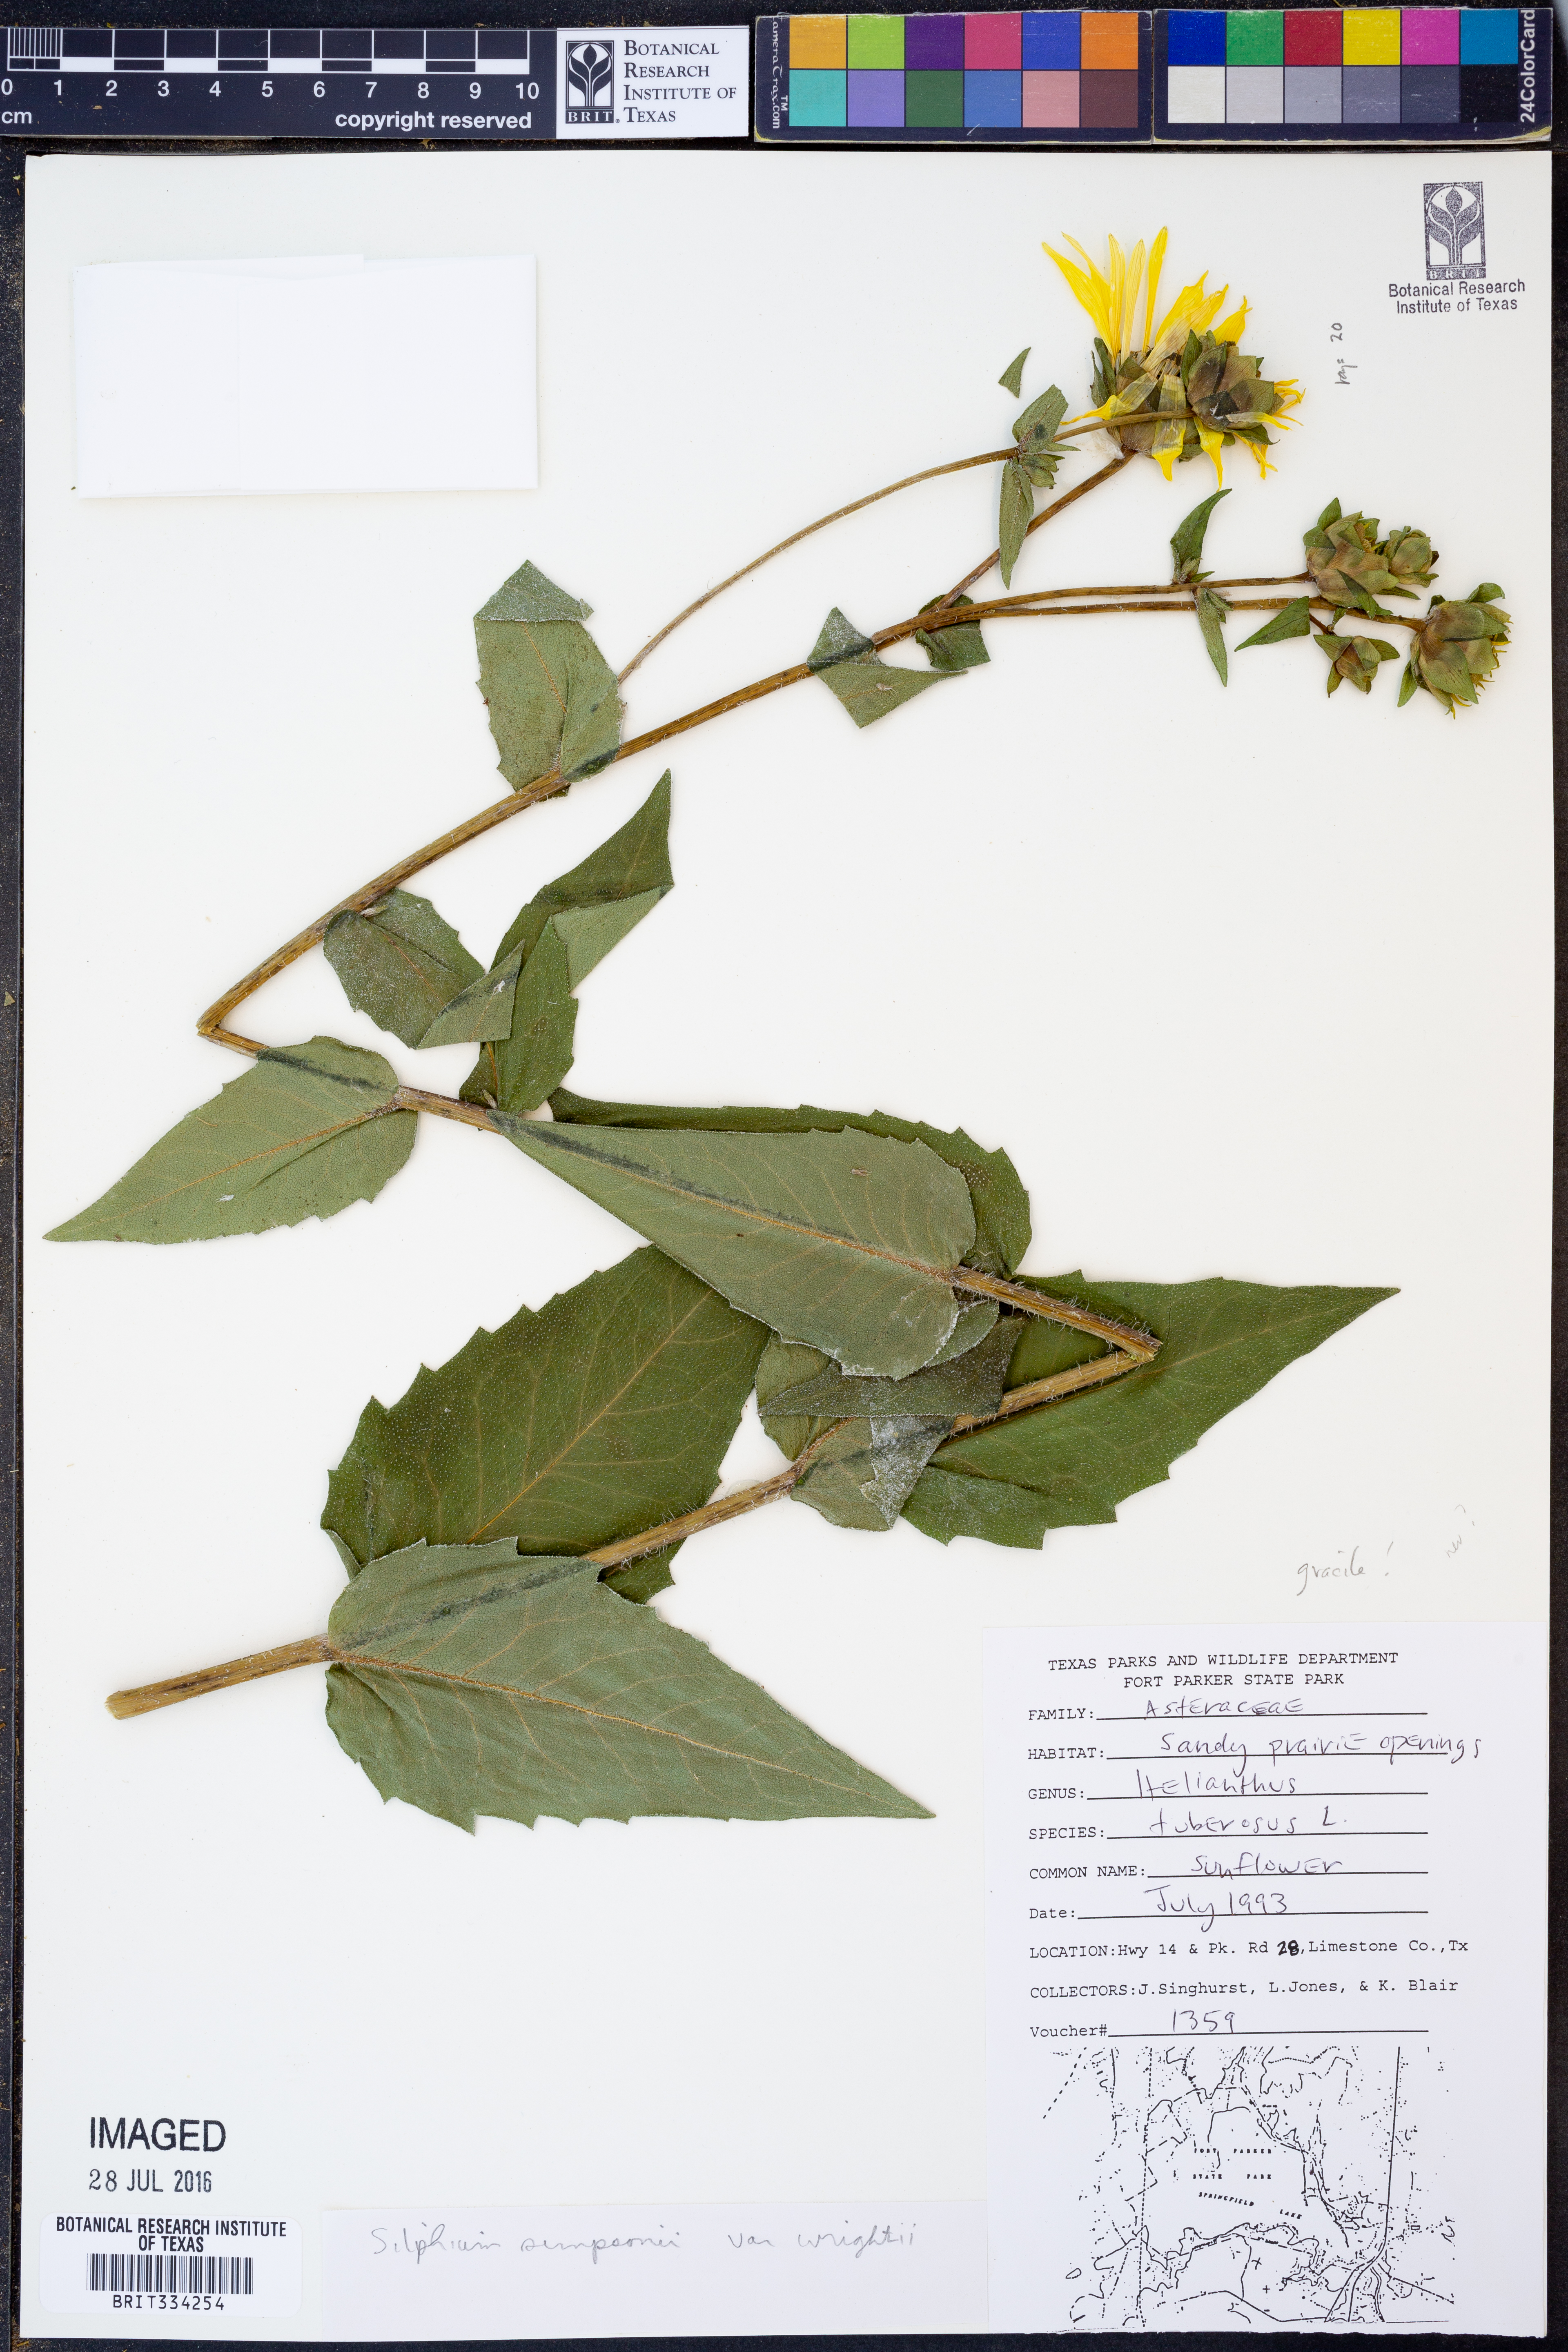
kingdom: Plantae
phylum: Tracheophyta
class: Magnoliopsida
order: Asterales
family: Asteraceae
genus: Silphium
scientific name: Silphium radula
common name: Roughleaf rosinweed
